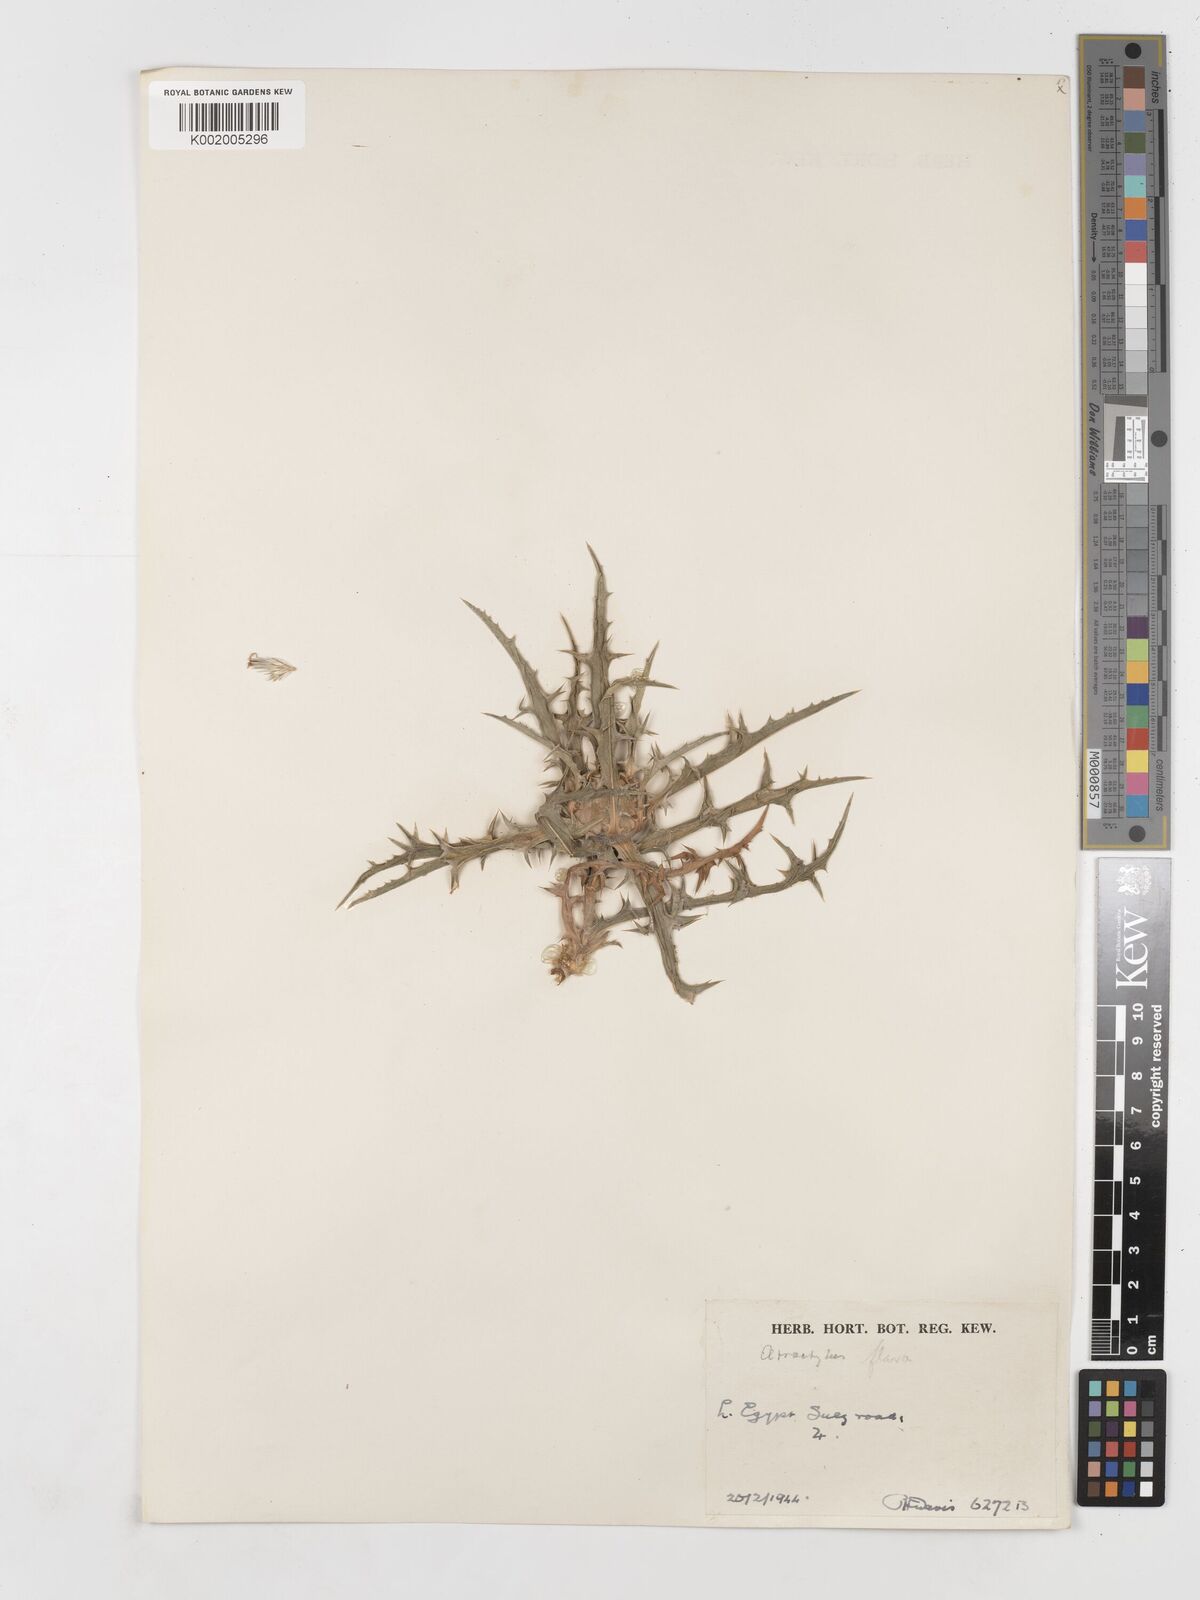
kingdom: Plantae
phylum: Tracheophyta
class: Magnoliopsida
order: Asterales
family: Asteraceae
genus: Atractylis
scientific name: Atractylis carduus
